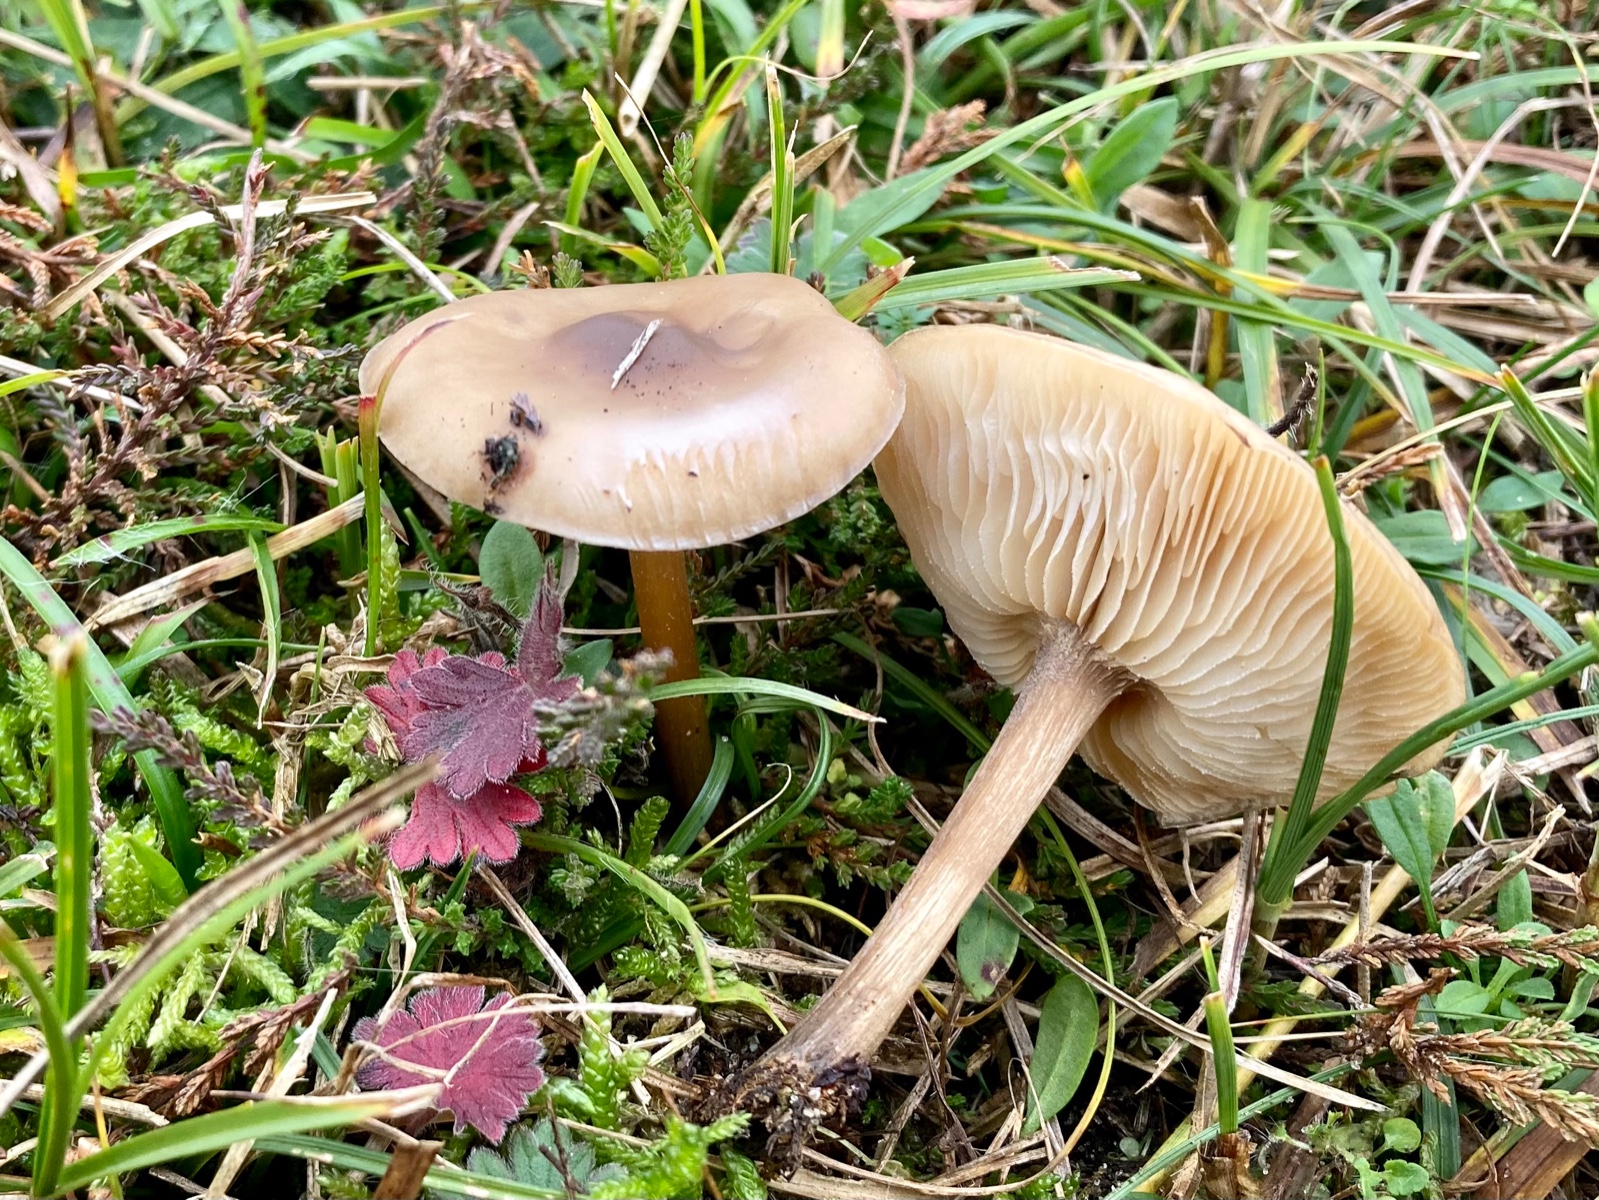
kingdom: Fungi
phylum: Basidiomycota
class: Agaricomycetes
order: Agaricales
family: Tricholomataceae
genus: Melanoleuca
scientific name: Melanoleuca cognata
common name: gyldengrå munkehat
